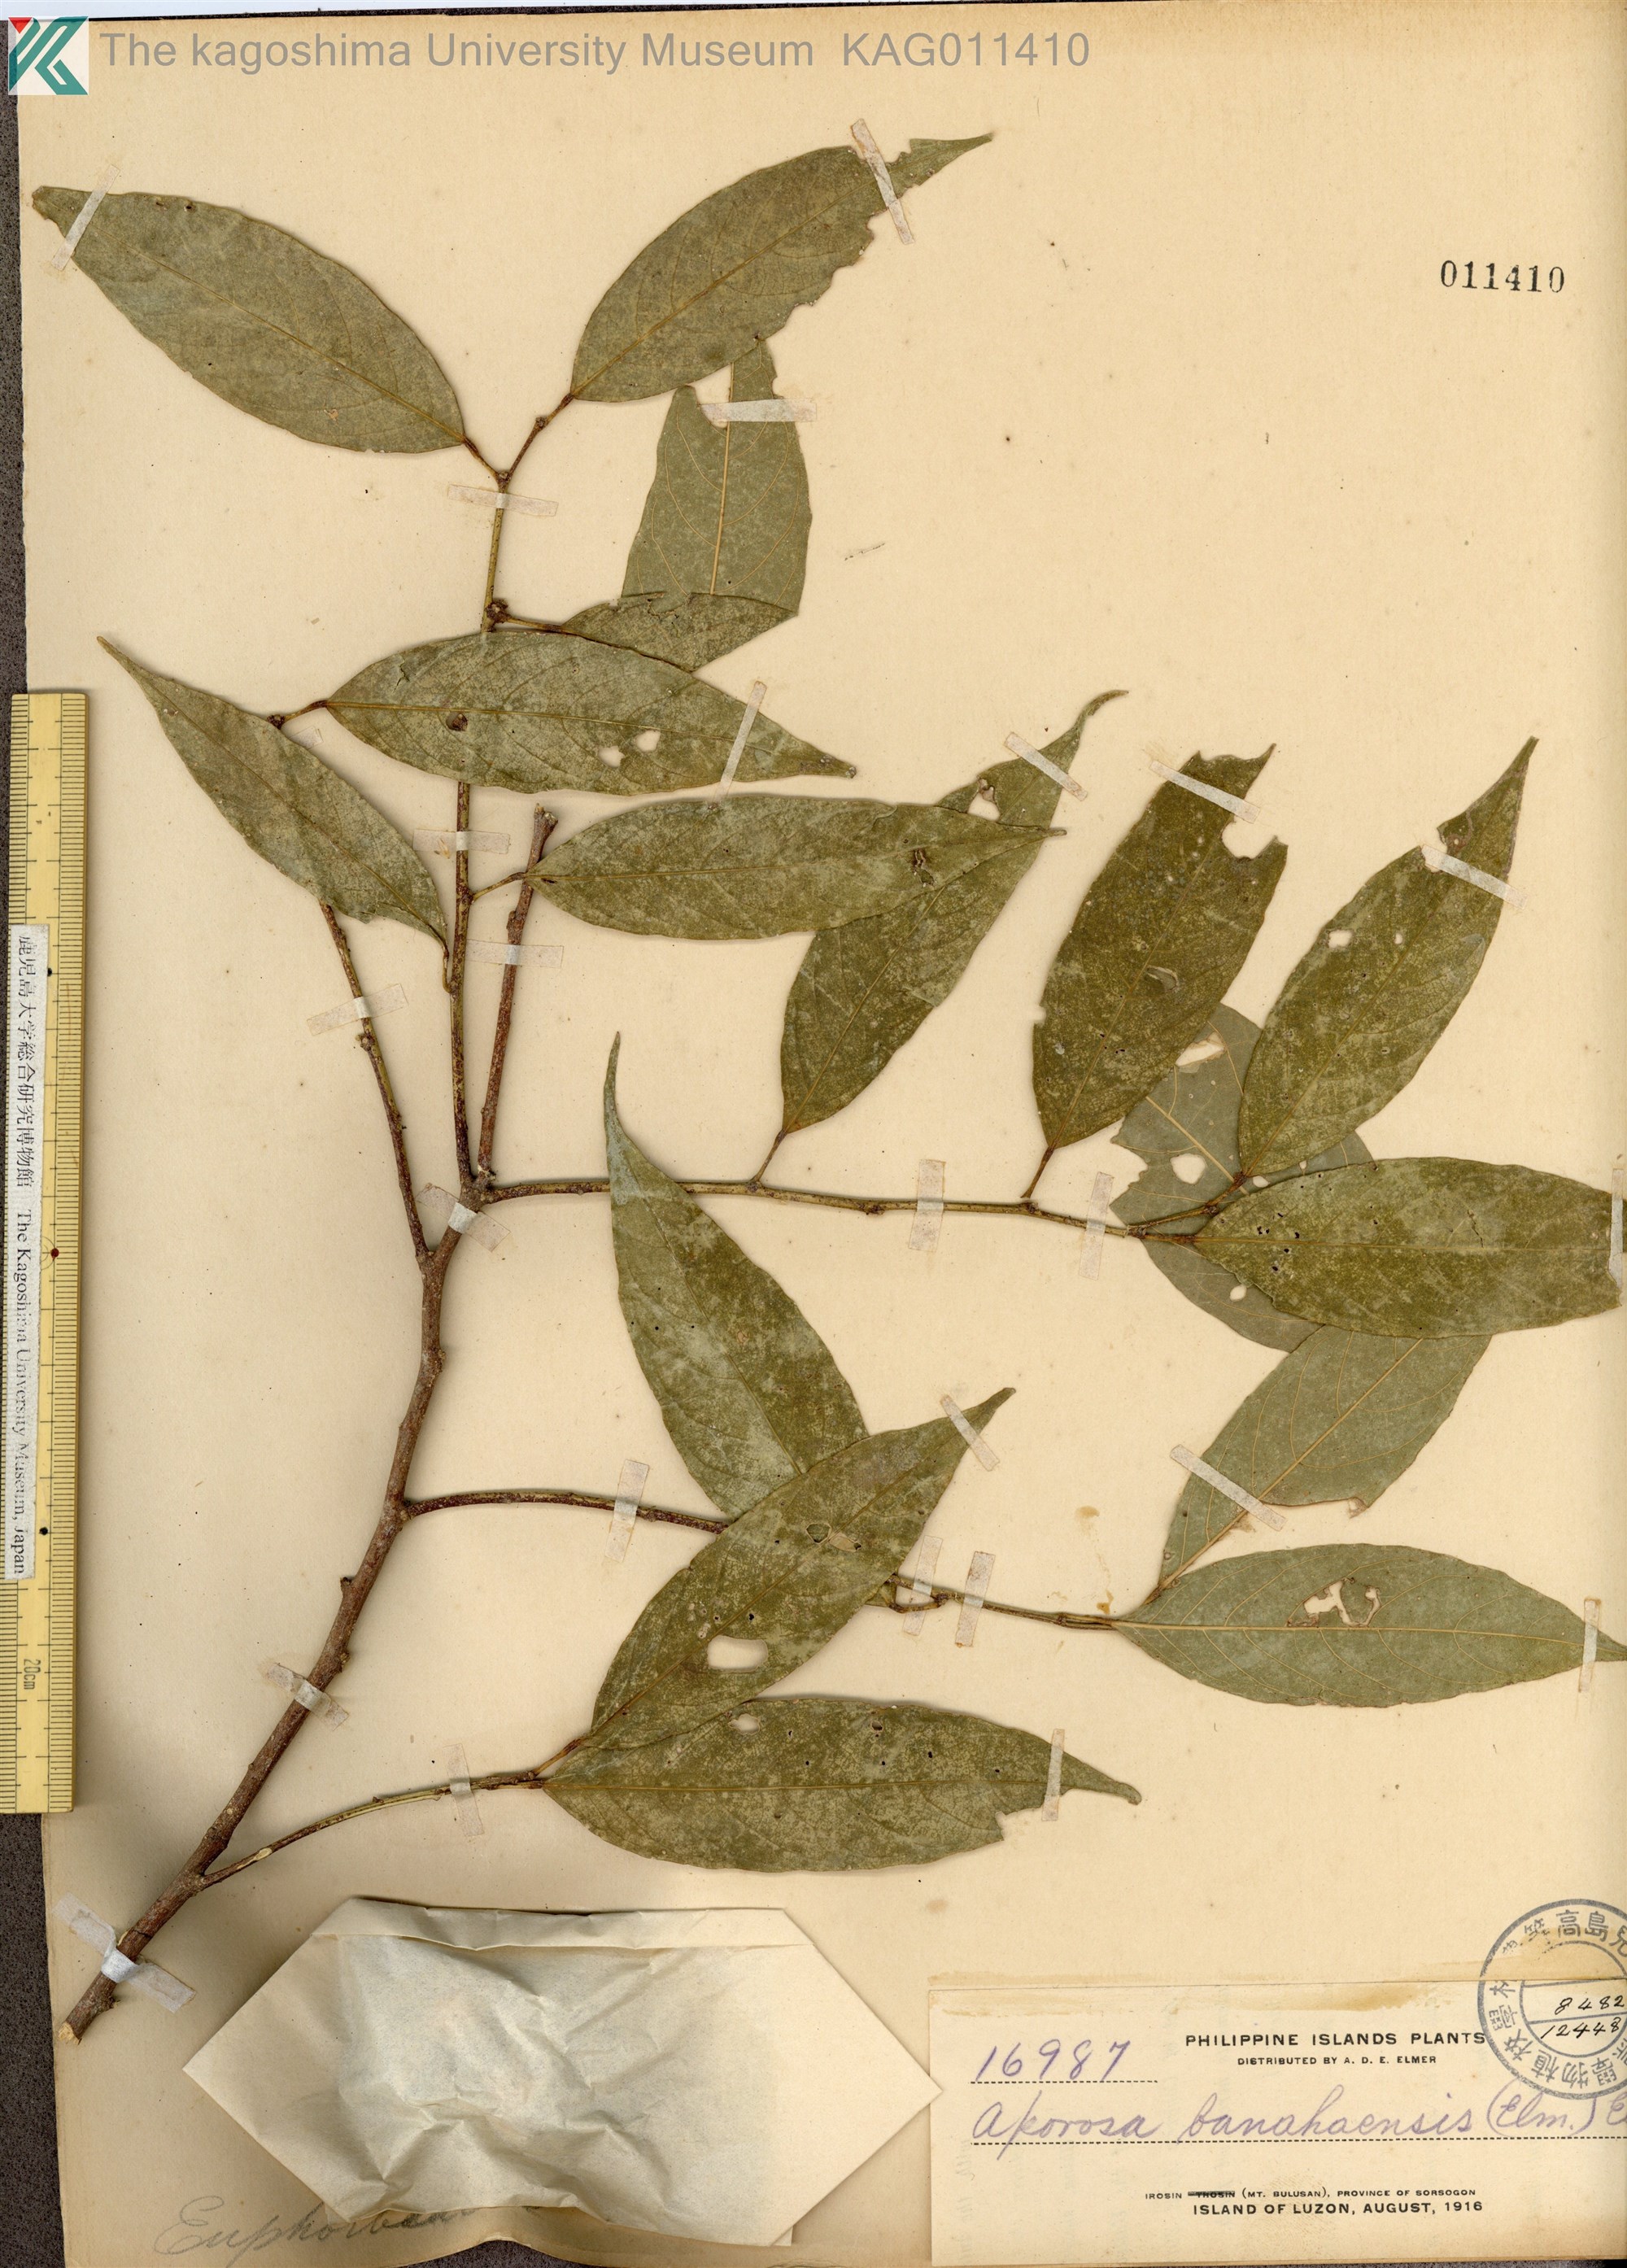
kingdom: Plantae
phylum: Tracheophyta
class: Magnoliopsida
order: Malpighiales
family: Phyllanthaceae
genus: Aporosa
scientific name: Aporosa banahaensis
